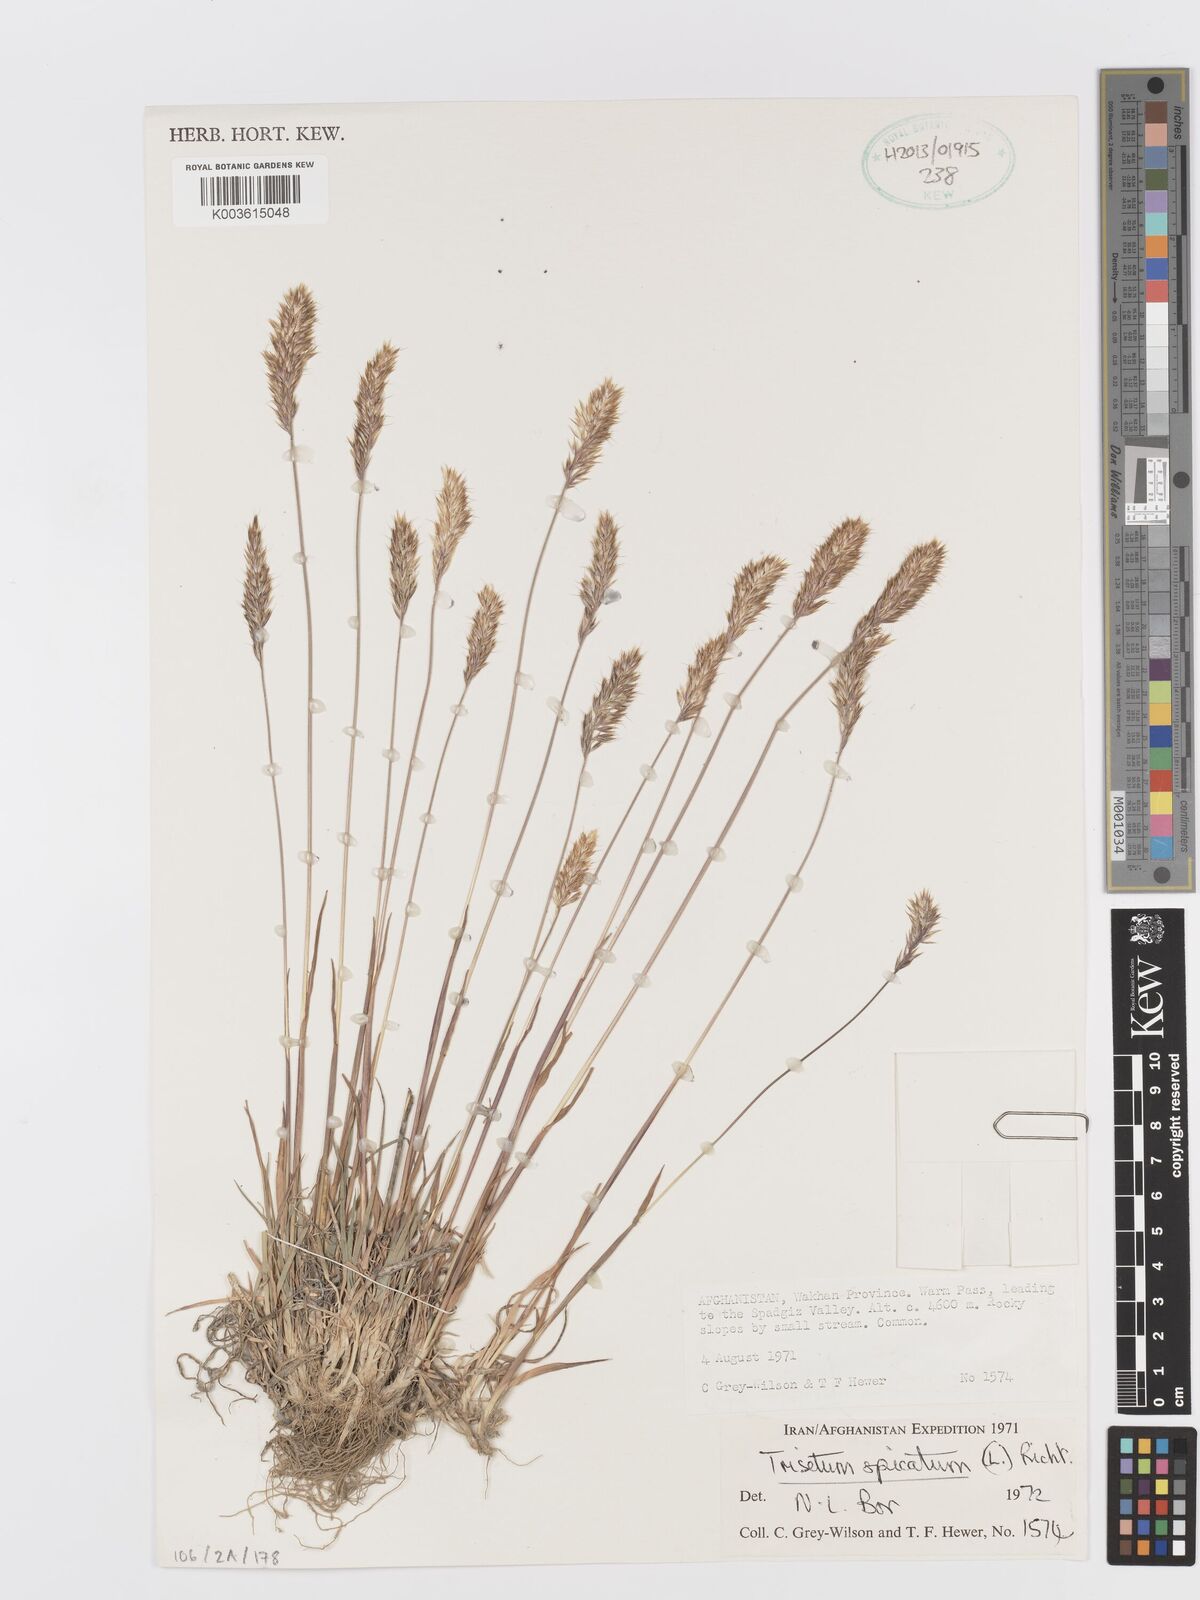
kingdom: Plantae
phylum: Tracheophyta
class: Liliopsida
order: Poales
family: Poaceae
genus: Koeleria
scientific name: Koeleria spicata
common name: Mountain trisetum
